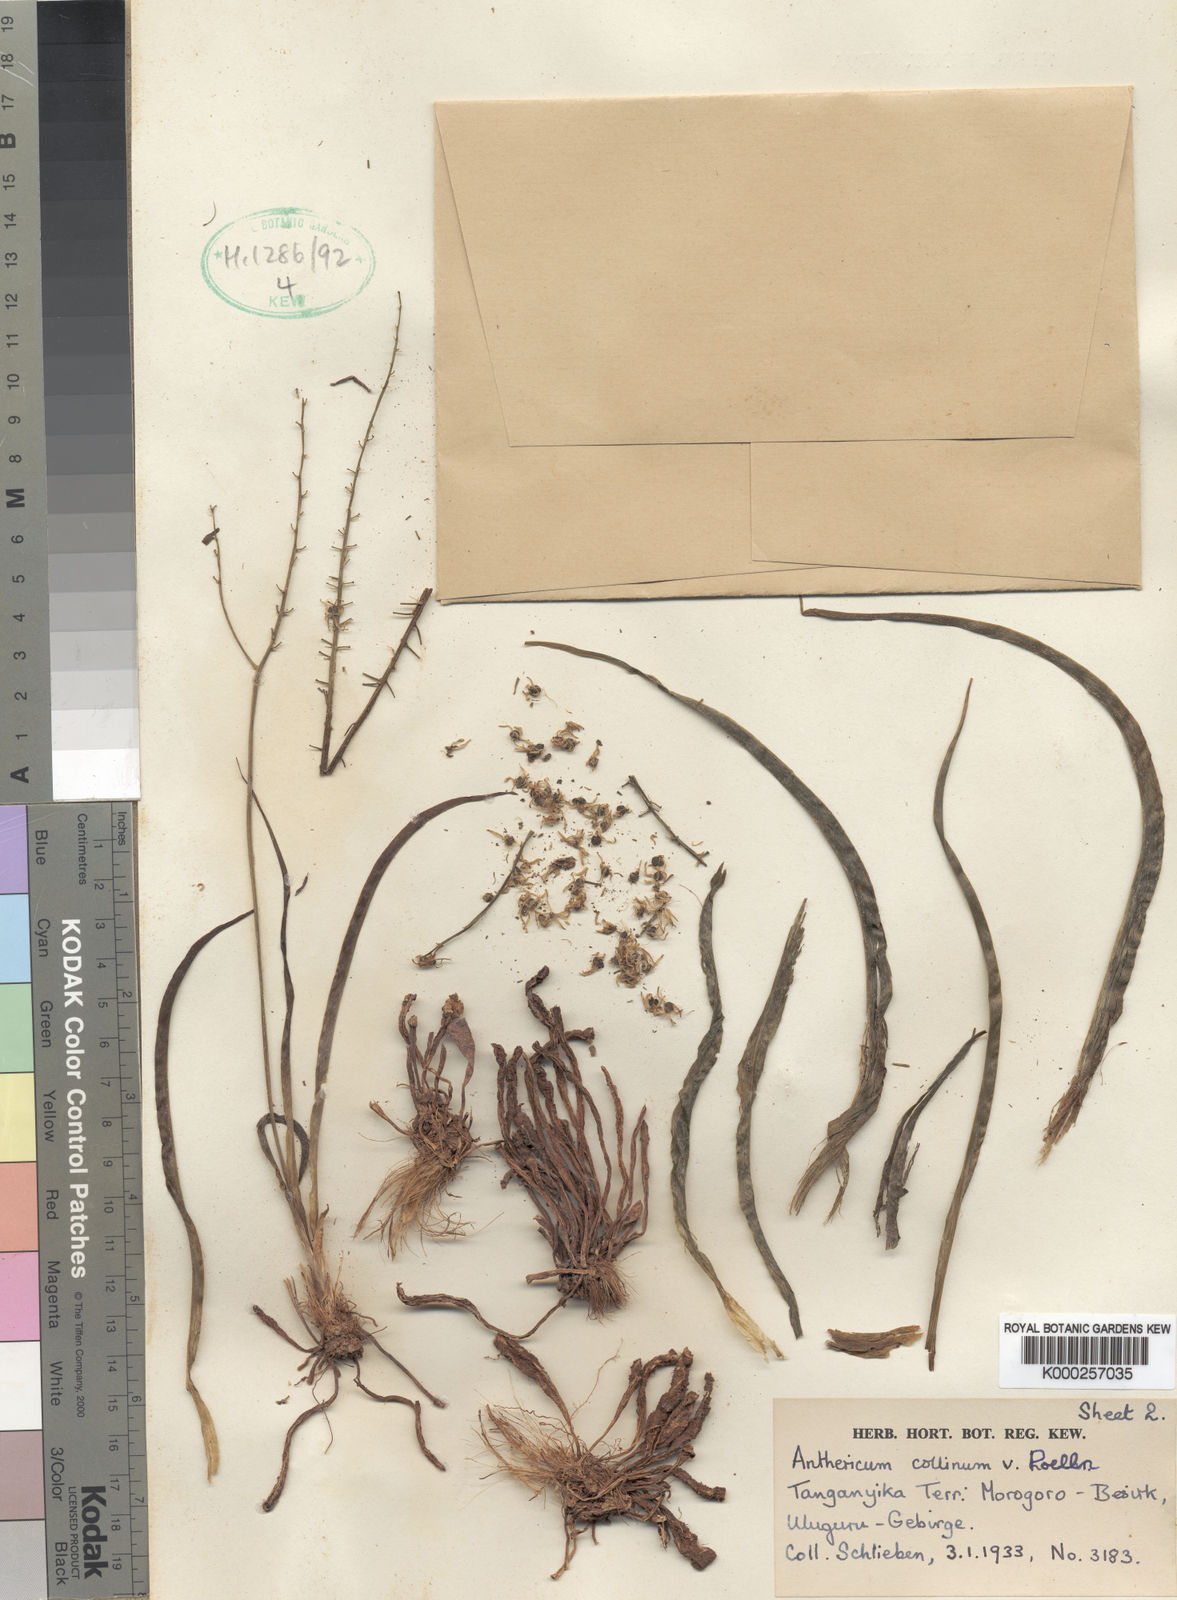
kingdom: Plantae
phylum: Tracheophyta
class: Liliopsida
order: Asparagales
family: Asparagaceae
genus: Chlorophytum
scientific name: Chlorophytum collinum
